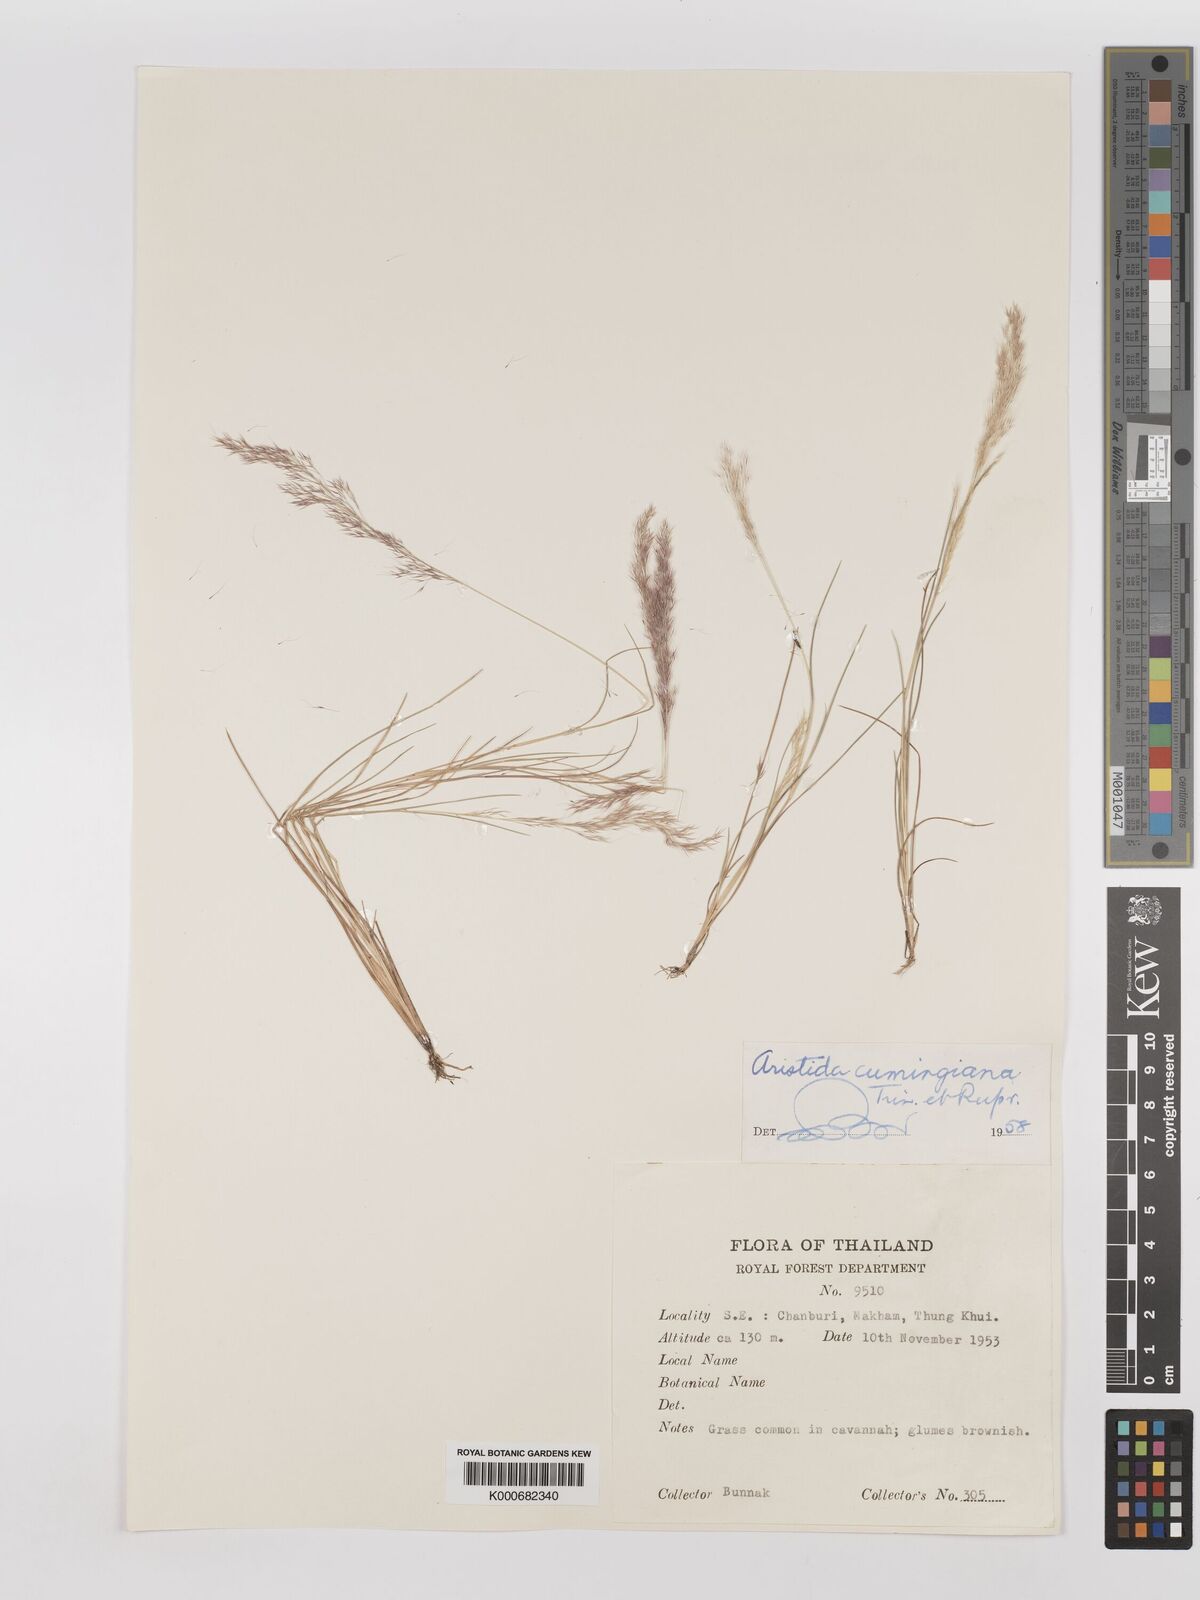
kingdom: Plantae
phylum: Tracheophyta
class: Liliopsida
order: Poales
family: Poaceae
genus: Aristida
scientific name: Aristida cumingiana
